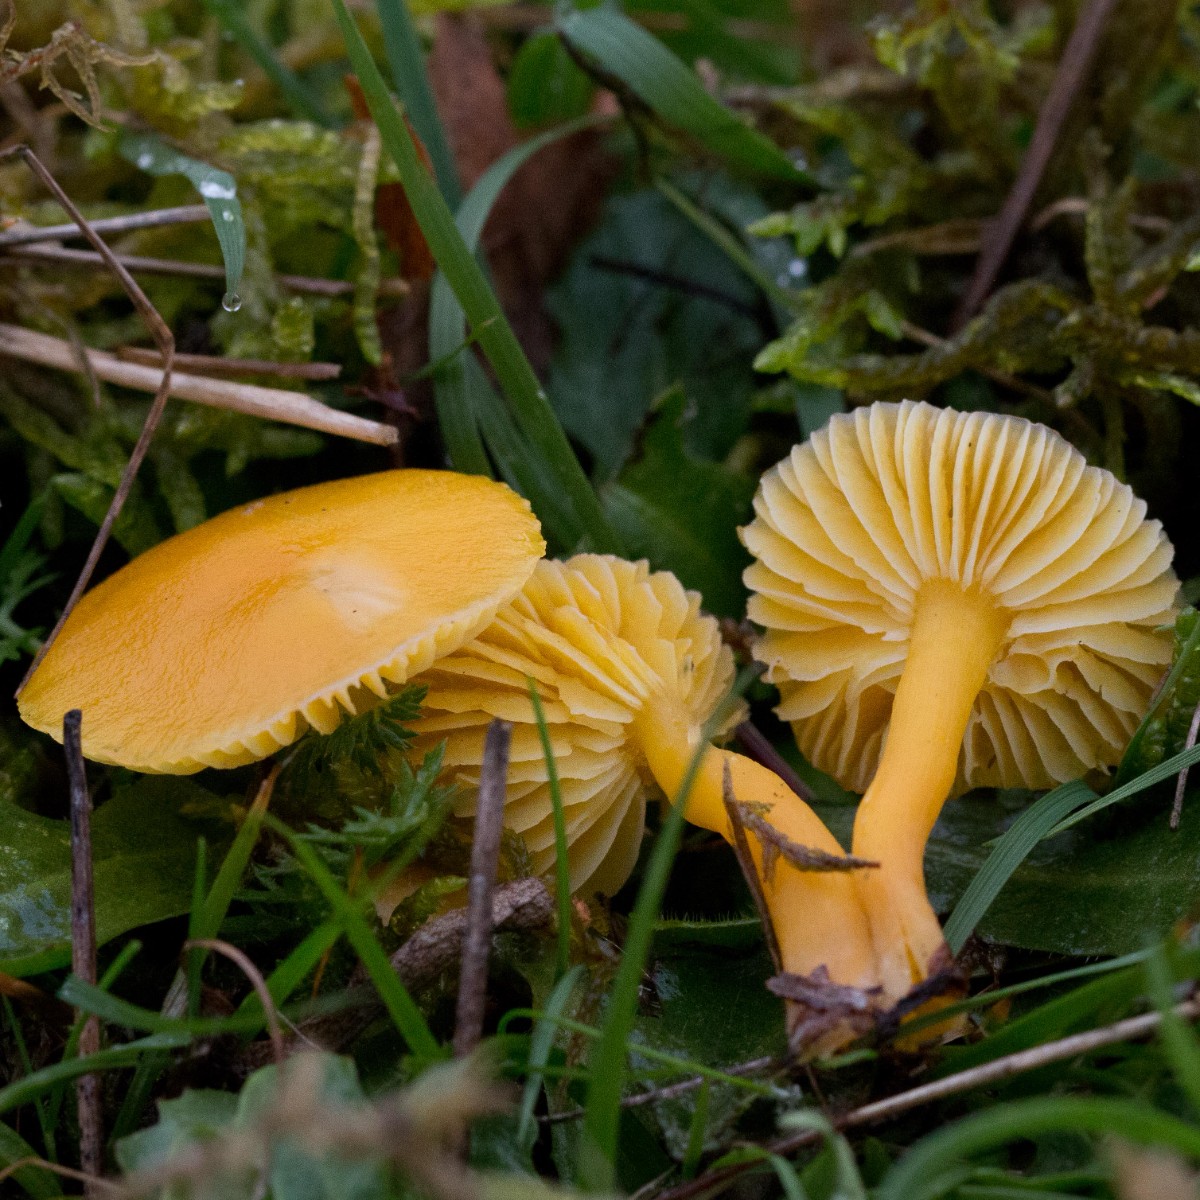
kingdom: Fungi
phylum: Basidiomycota
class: Agaricomycetes
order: Agaricales
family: Hygrophoraceae
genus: Hygrocybe
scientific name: Hygrocybe ceracea
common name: voksgul vokshat
